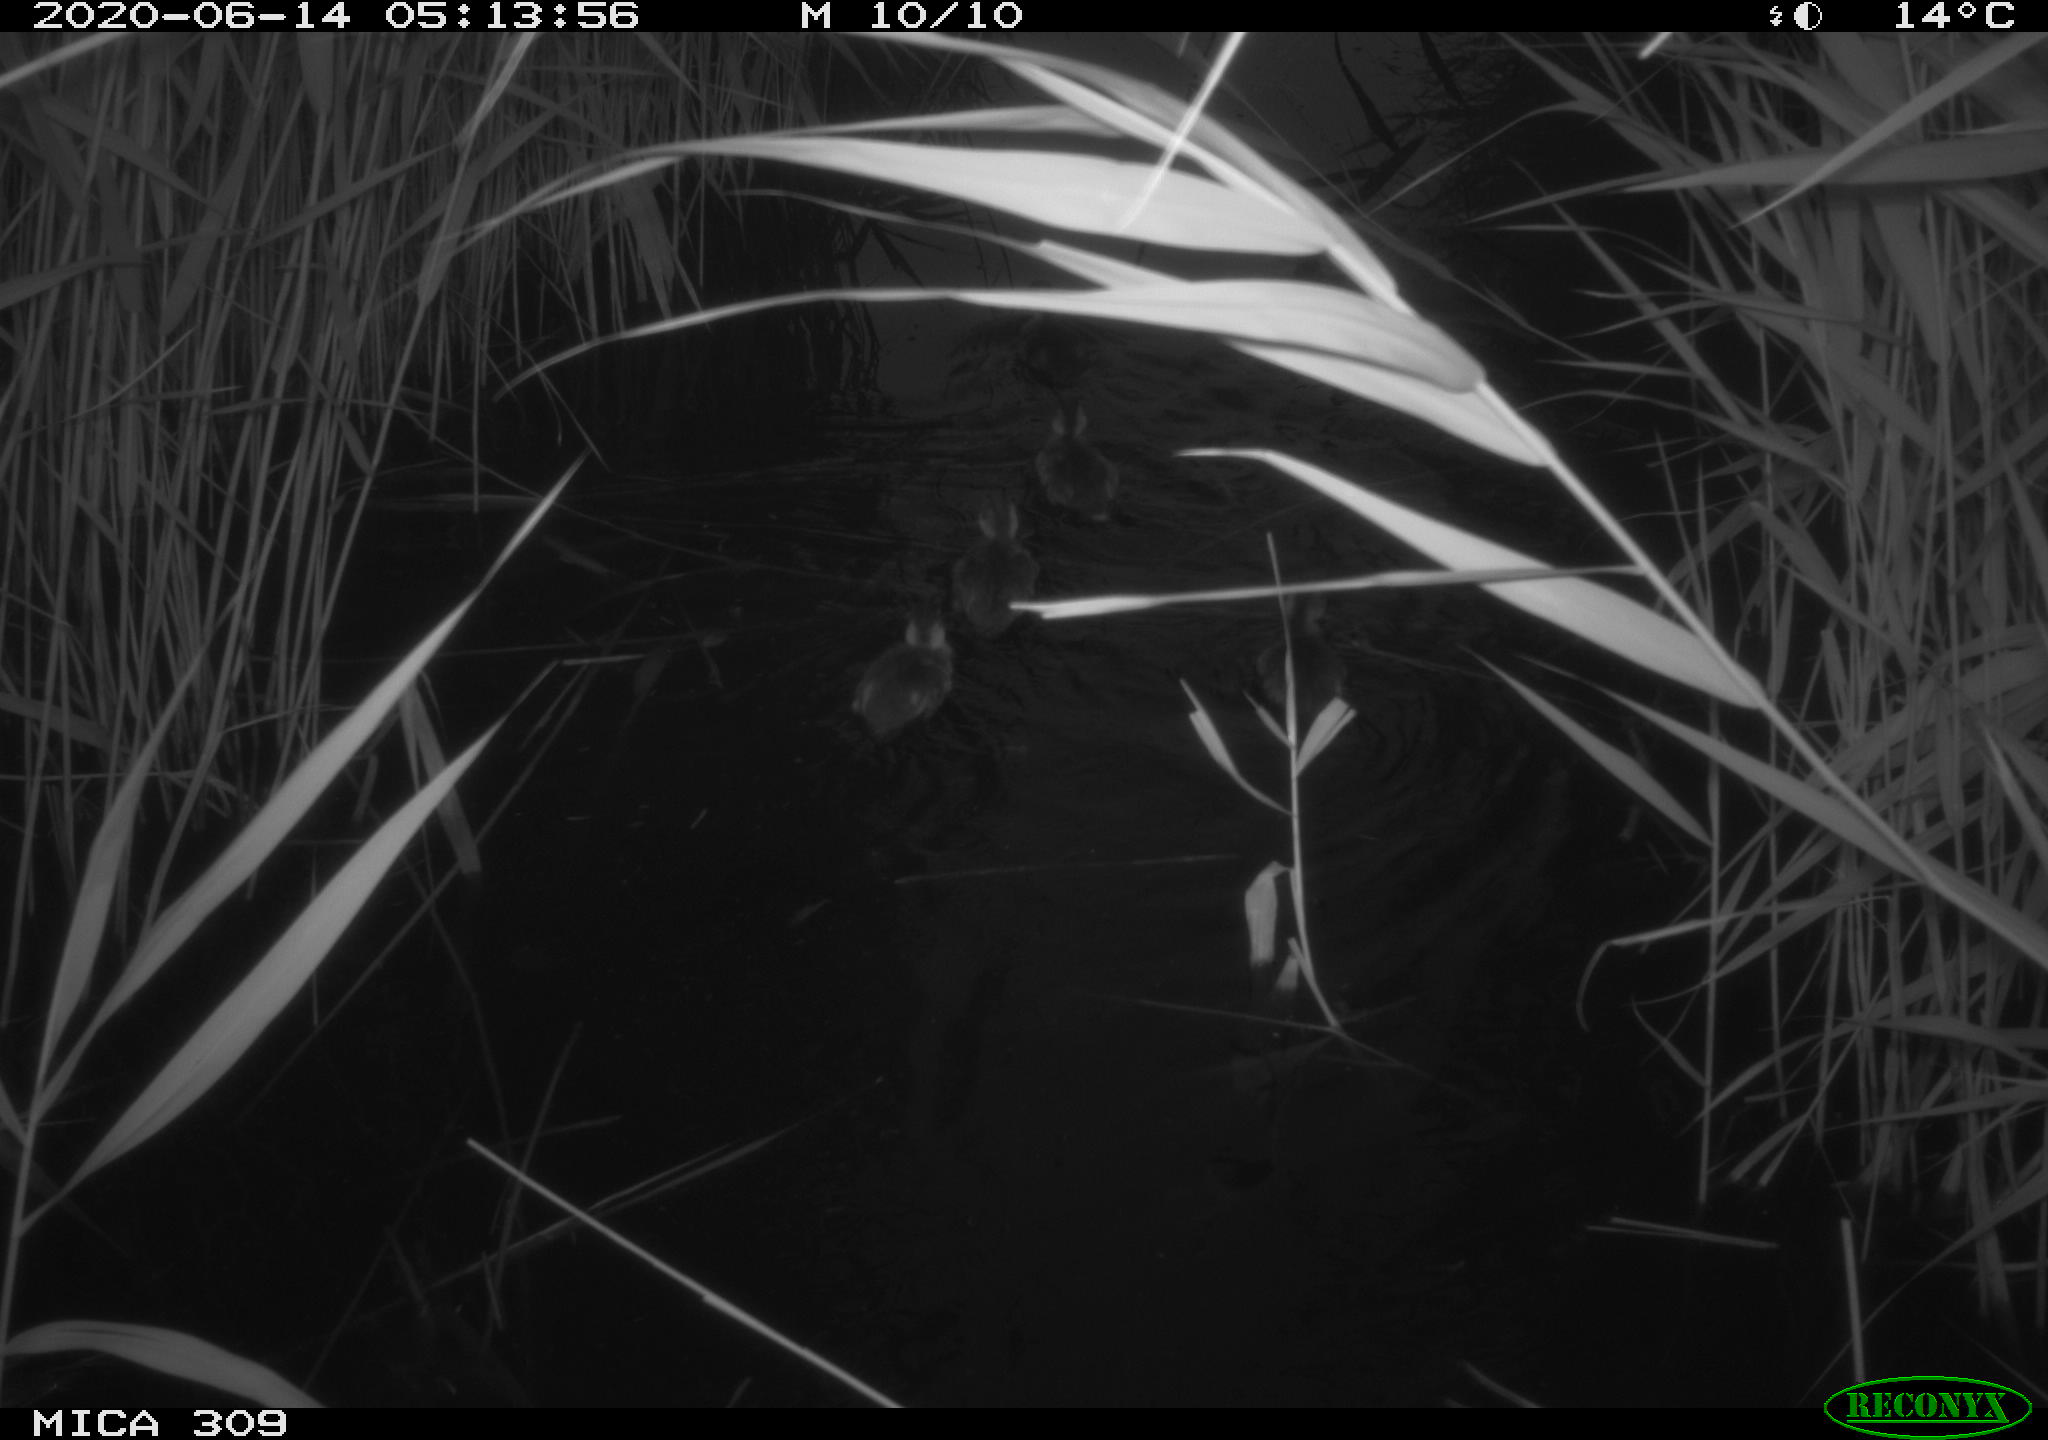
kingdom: Animalia
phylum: Chordata
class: Aves
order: Anseriformes
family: Anatidae
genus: Anas
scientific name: Anas platyrhynchos
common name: Mallard
